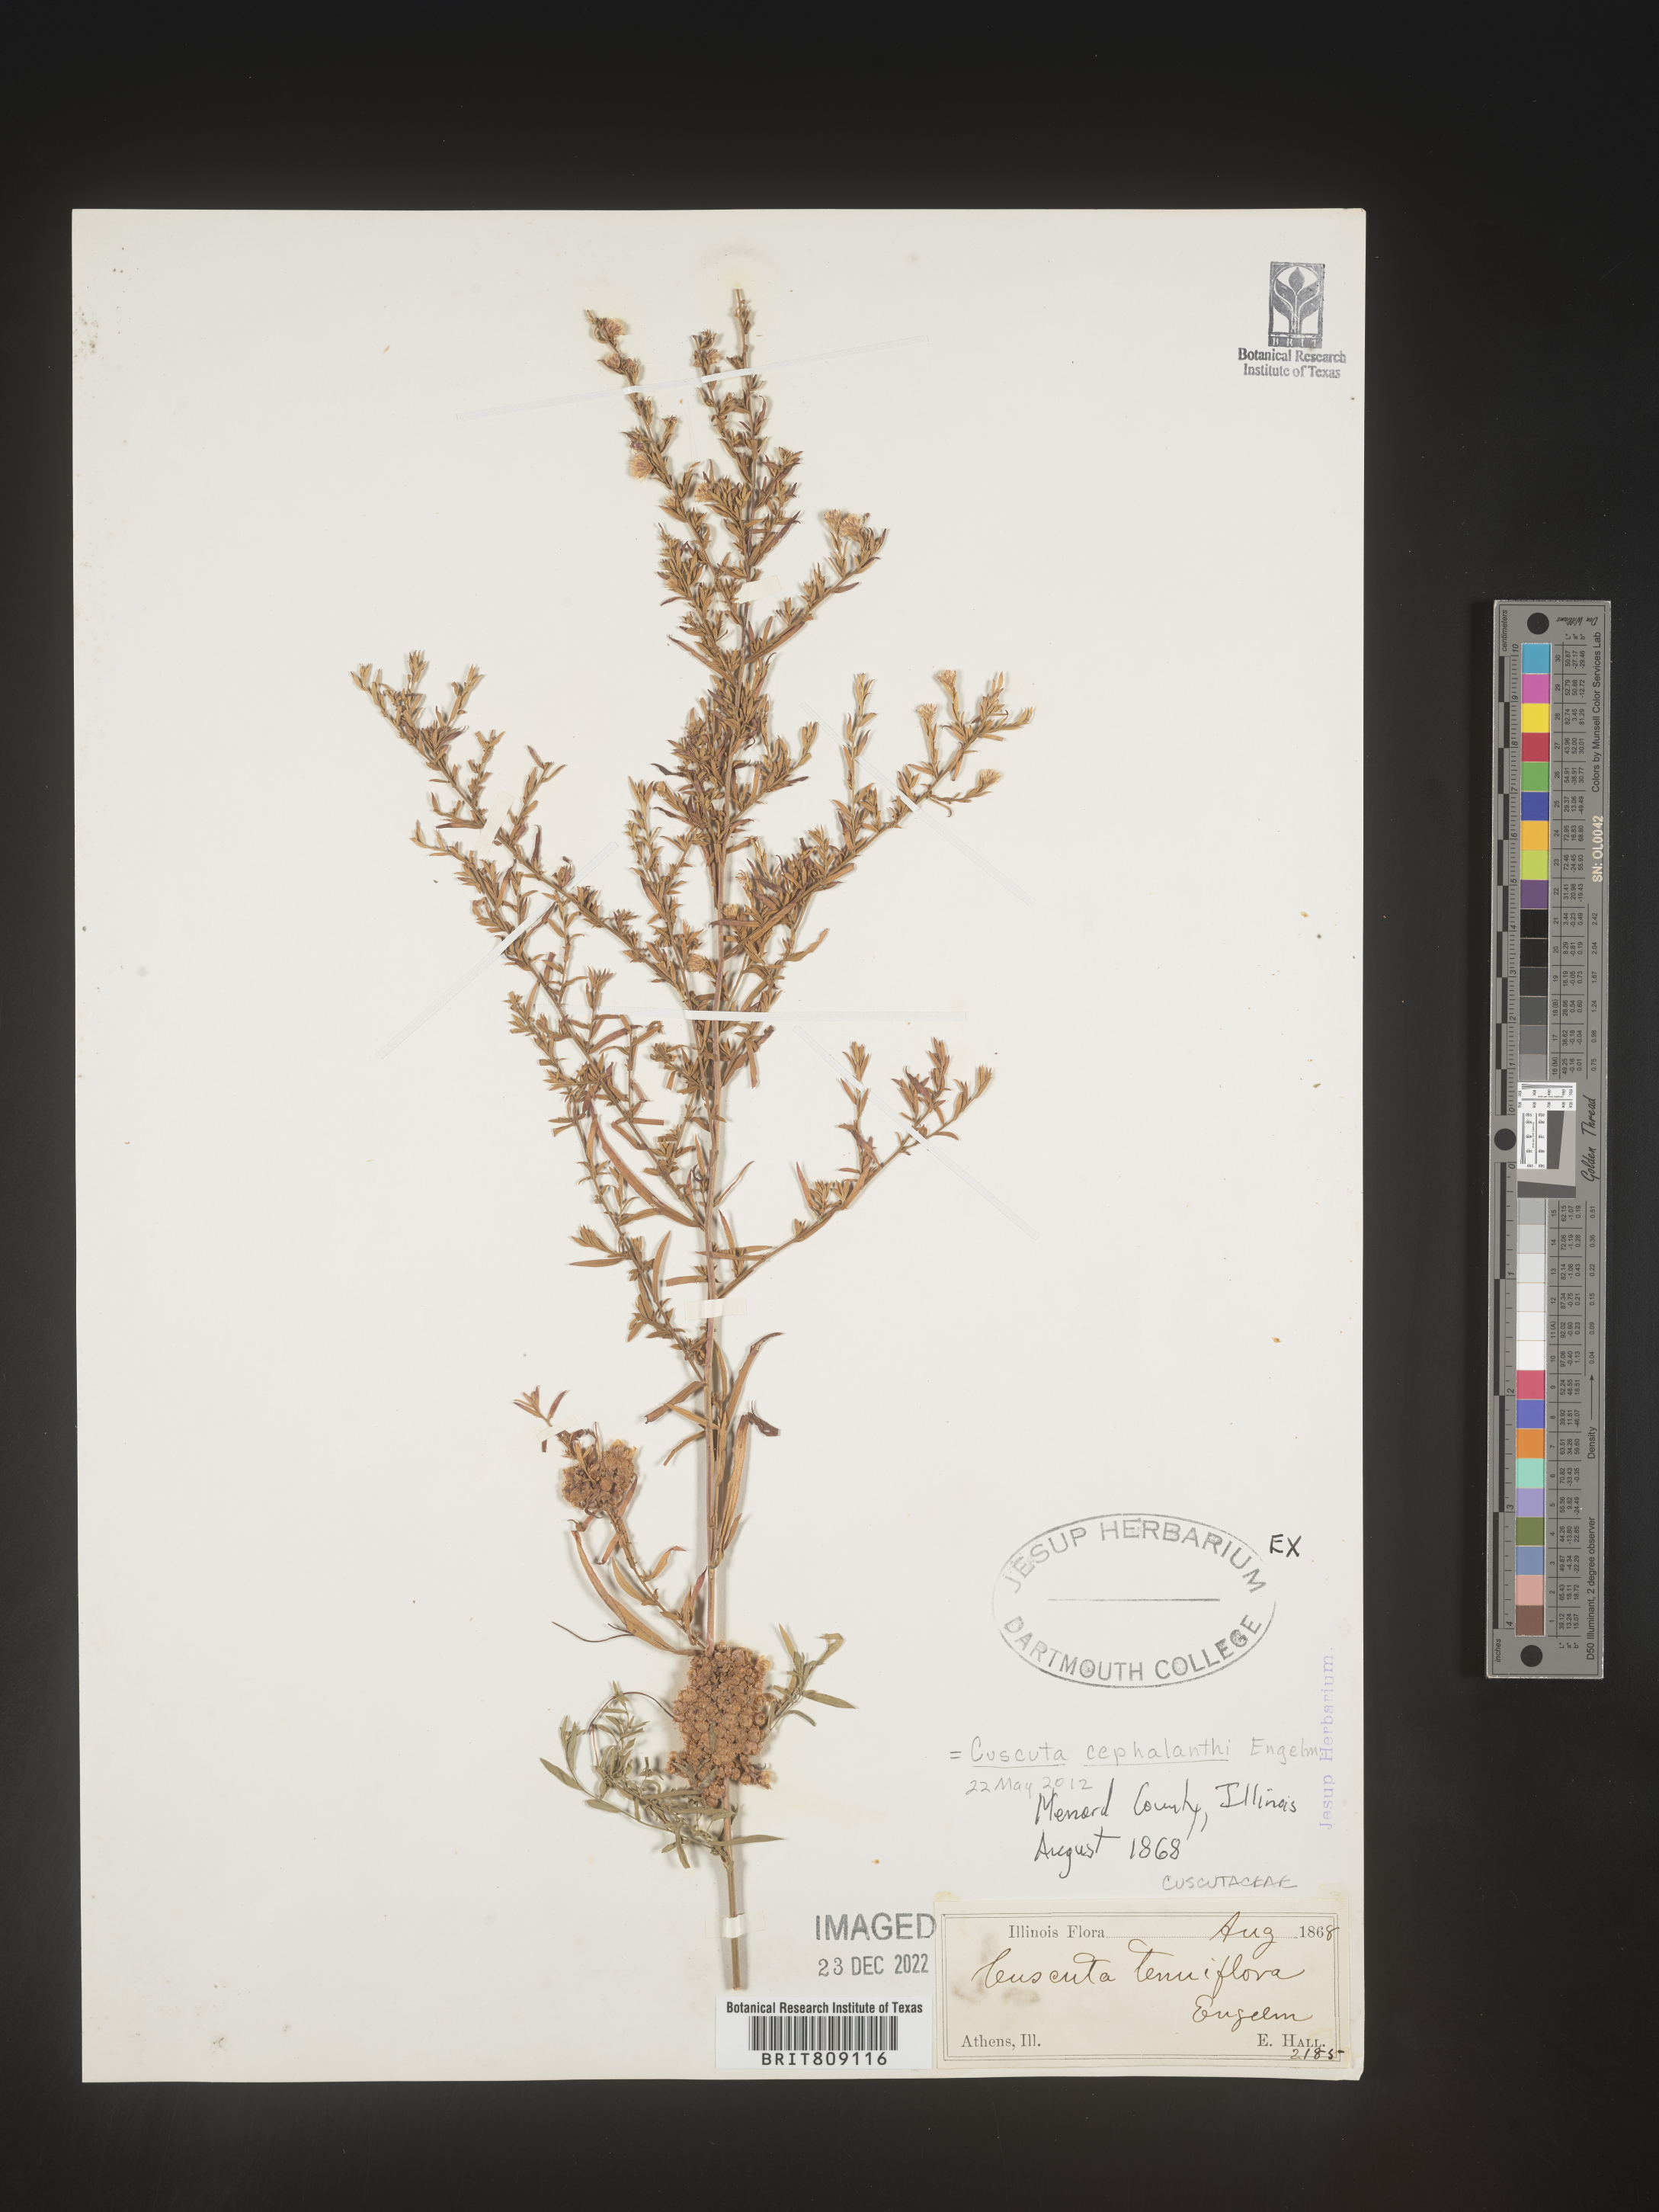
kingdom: Plantae
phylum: Tracheophyta
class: Magnoliopsida
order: Solanales
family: Convolvulaceae
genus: Cuscuta
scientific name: Cuscuta cephalanthi
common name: Button dodder
